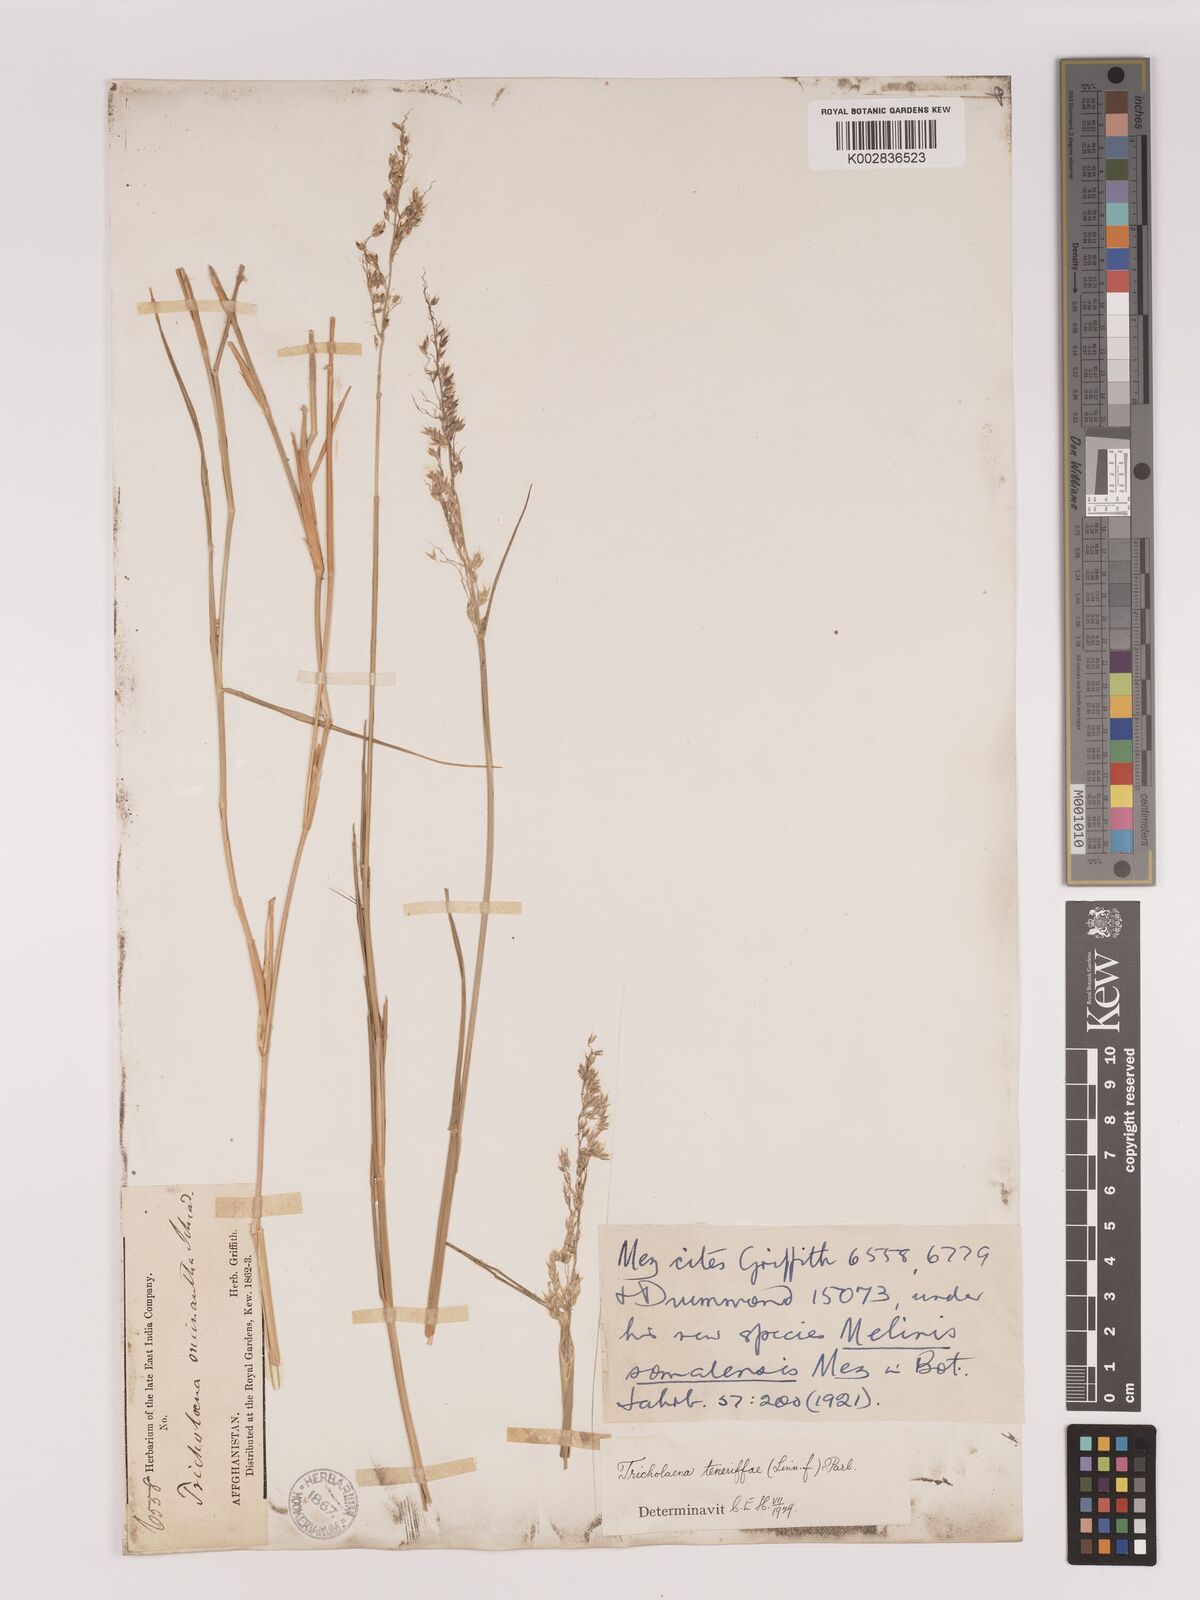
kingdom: Plantae
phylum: Tracheophyta
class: Liliopsida
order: Poales
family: Poaceae
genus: Tricholaena
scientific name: Tricholaena teneriffae
